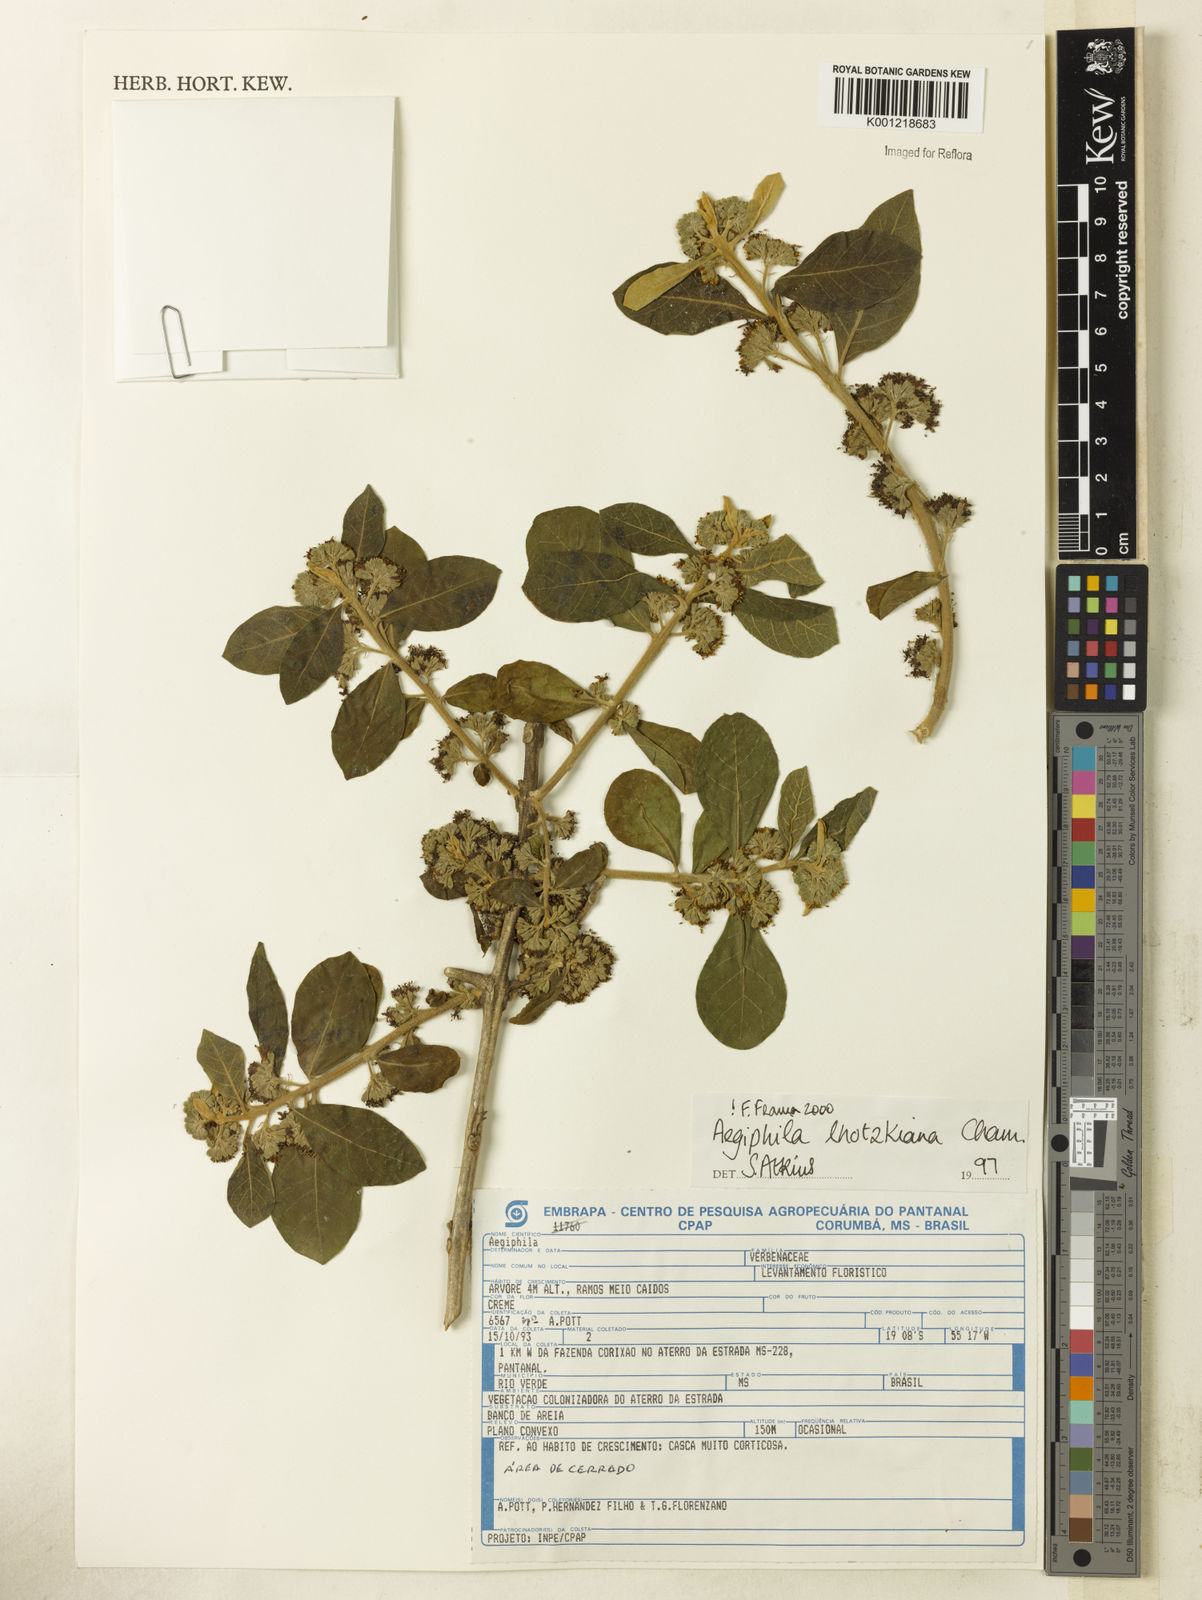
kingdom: Plantae
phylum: Tracheophyta
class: Magnoliopsida
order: Lamiales
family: Lamiaceae
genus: Aegiphila
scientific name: Aegiphila verticillata
